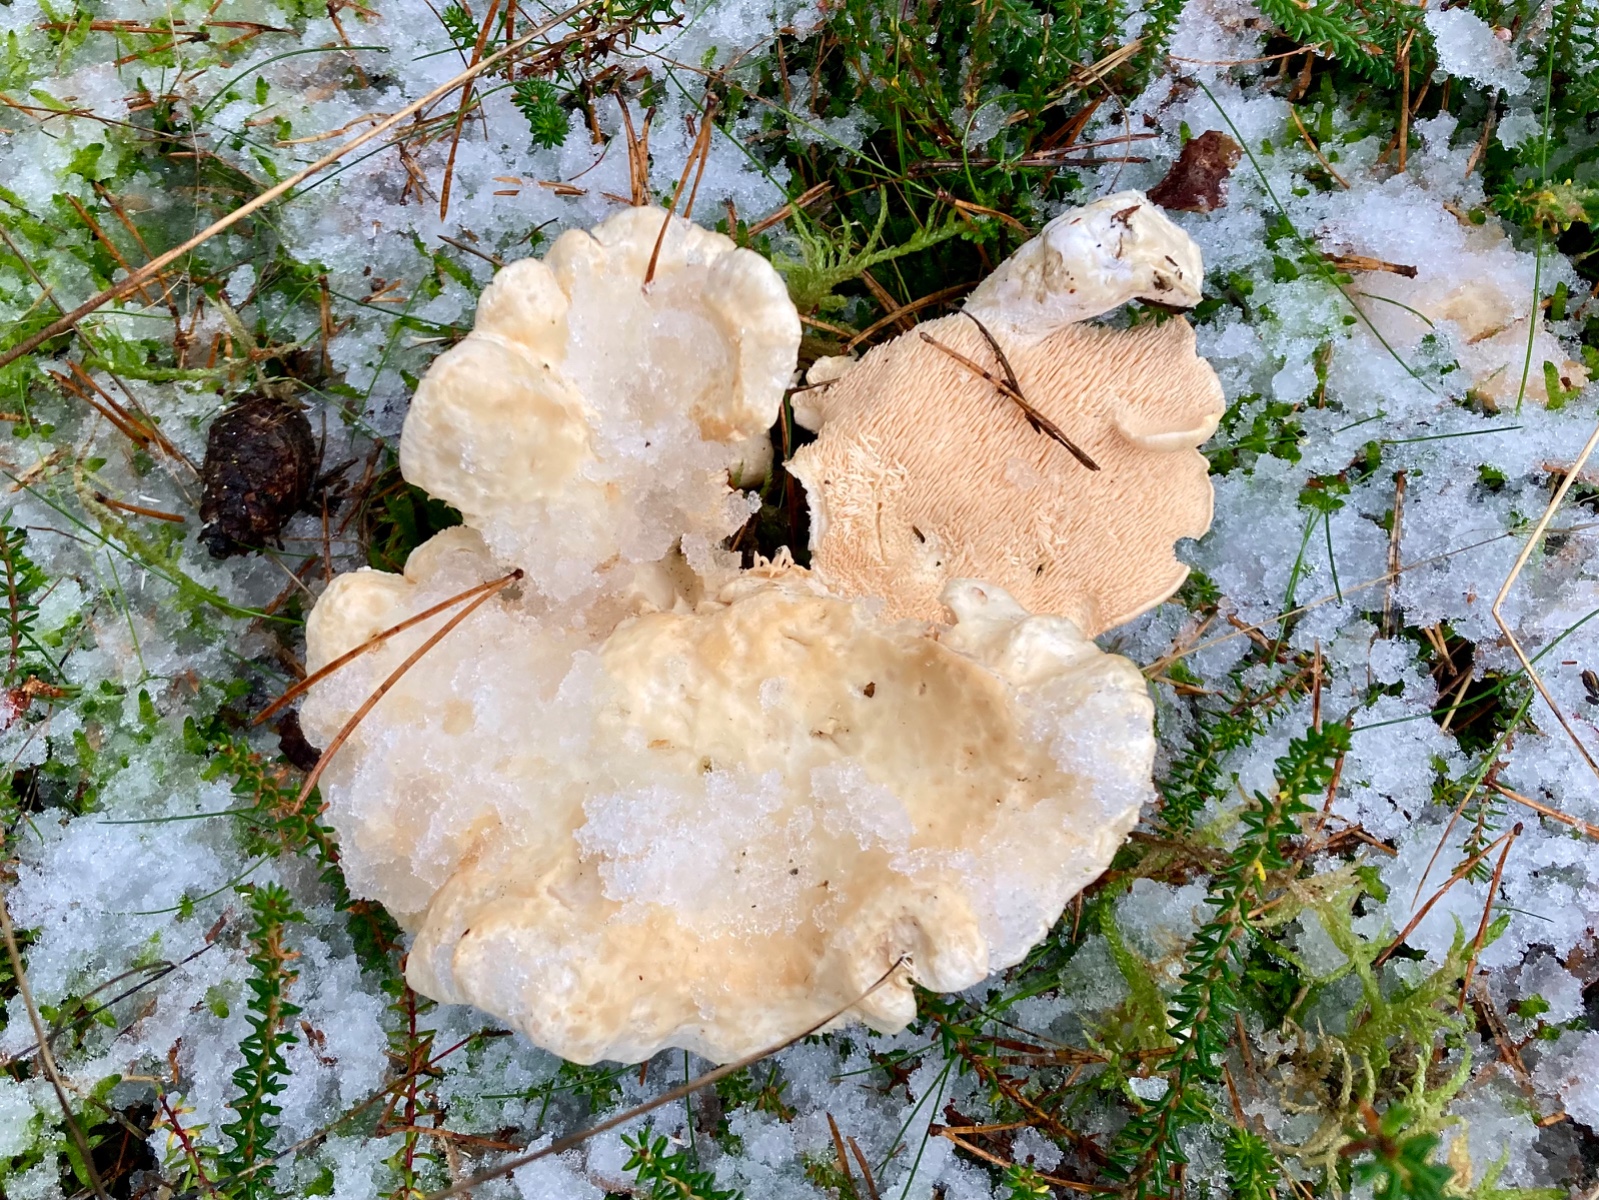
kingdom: Fungi
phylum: Basidiomycota
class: Agaricomycetes
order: Cantharellales
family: Hydnaceae
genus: Hydnum
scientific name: Hydnum repandum
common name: almindelig pigsvamp
